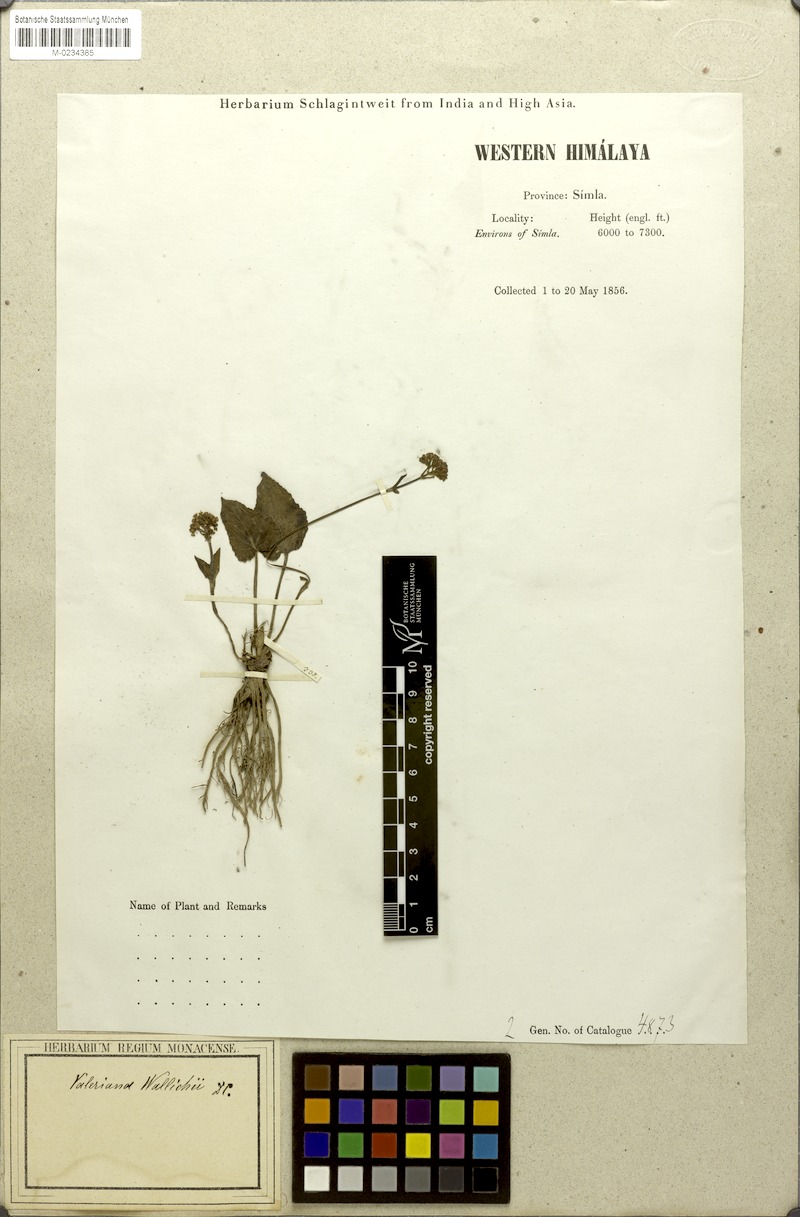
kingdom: Plantae
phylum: Tracheophyta
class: Magnoliopsida
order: Dipsacales
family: Caprifoliaceae
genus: Valeriana
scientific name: Valeriana jatamansi
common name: Indian valerian
